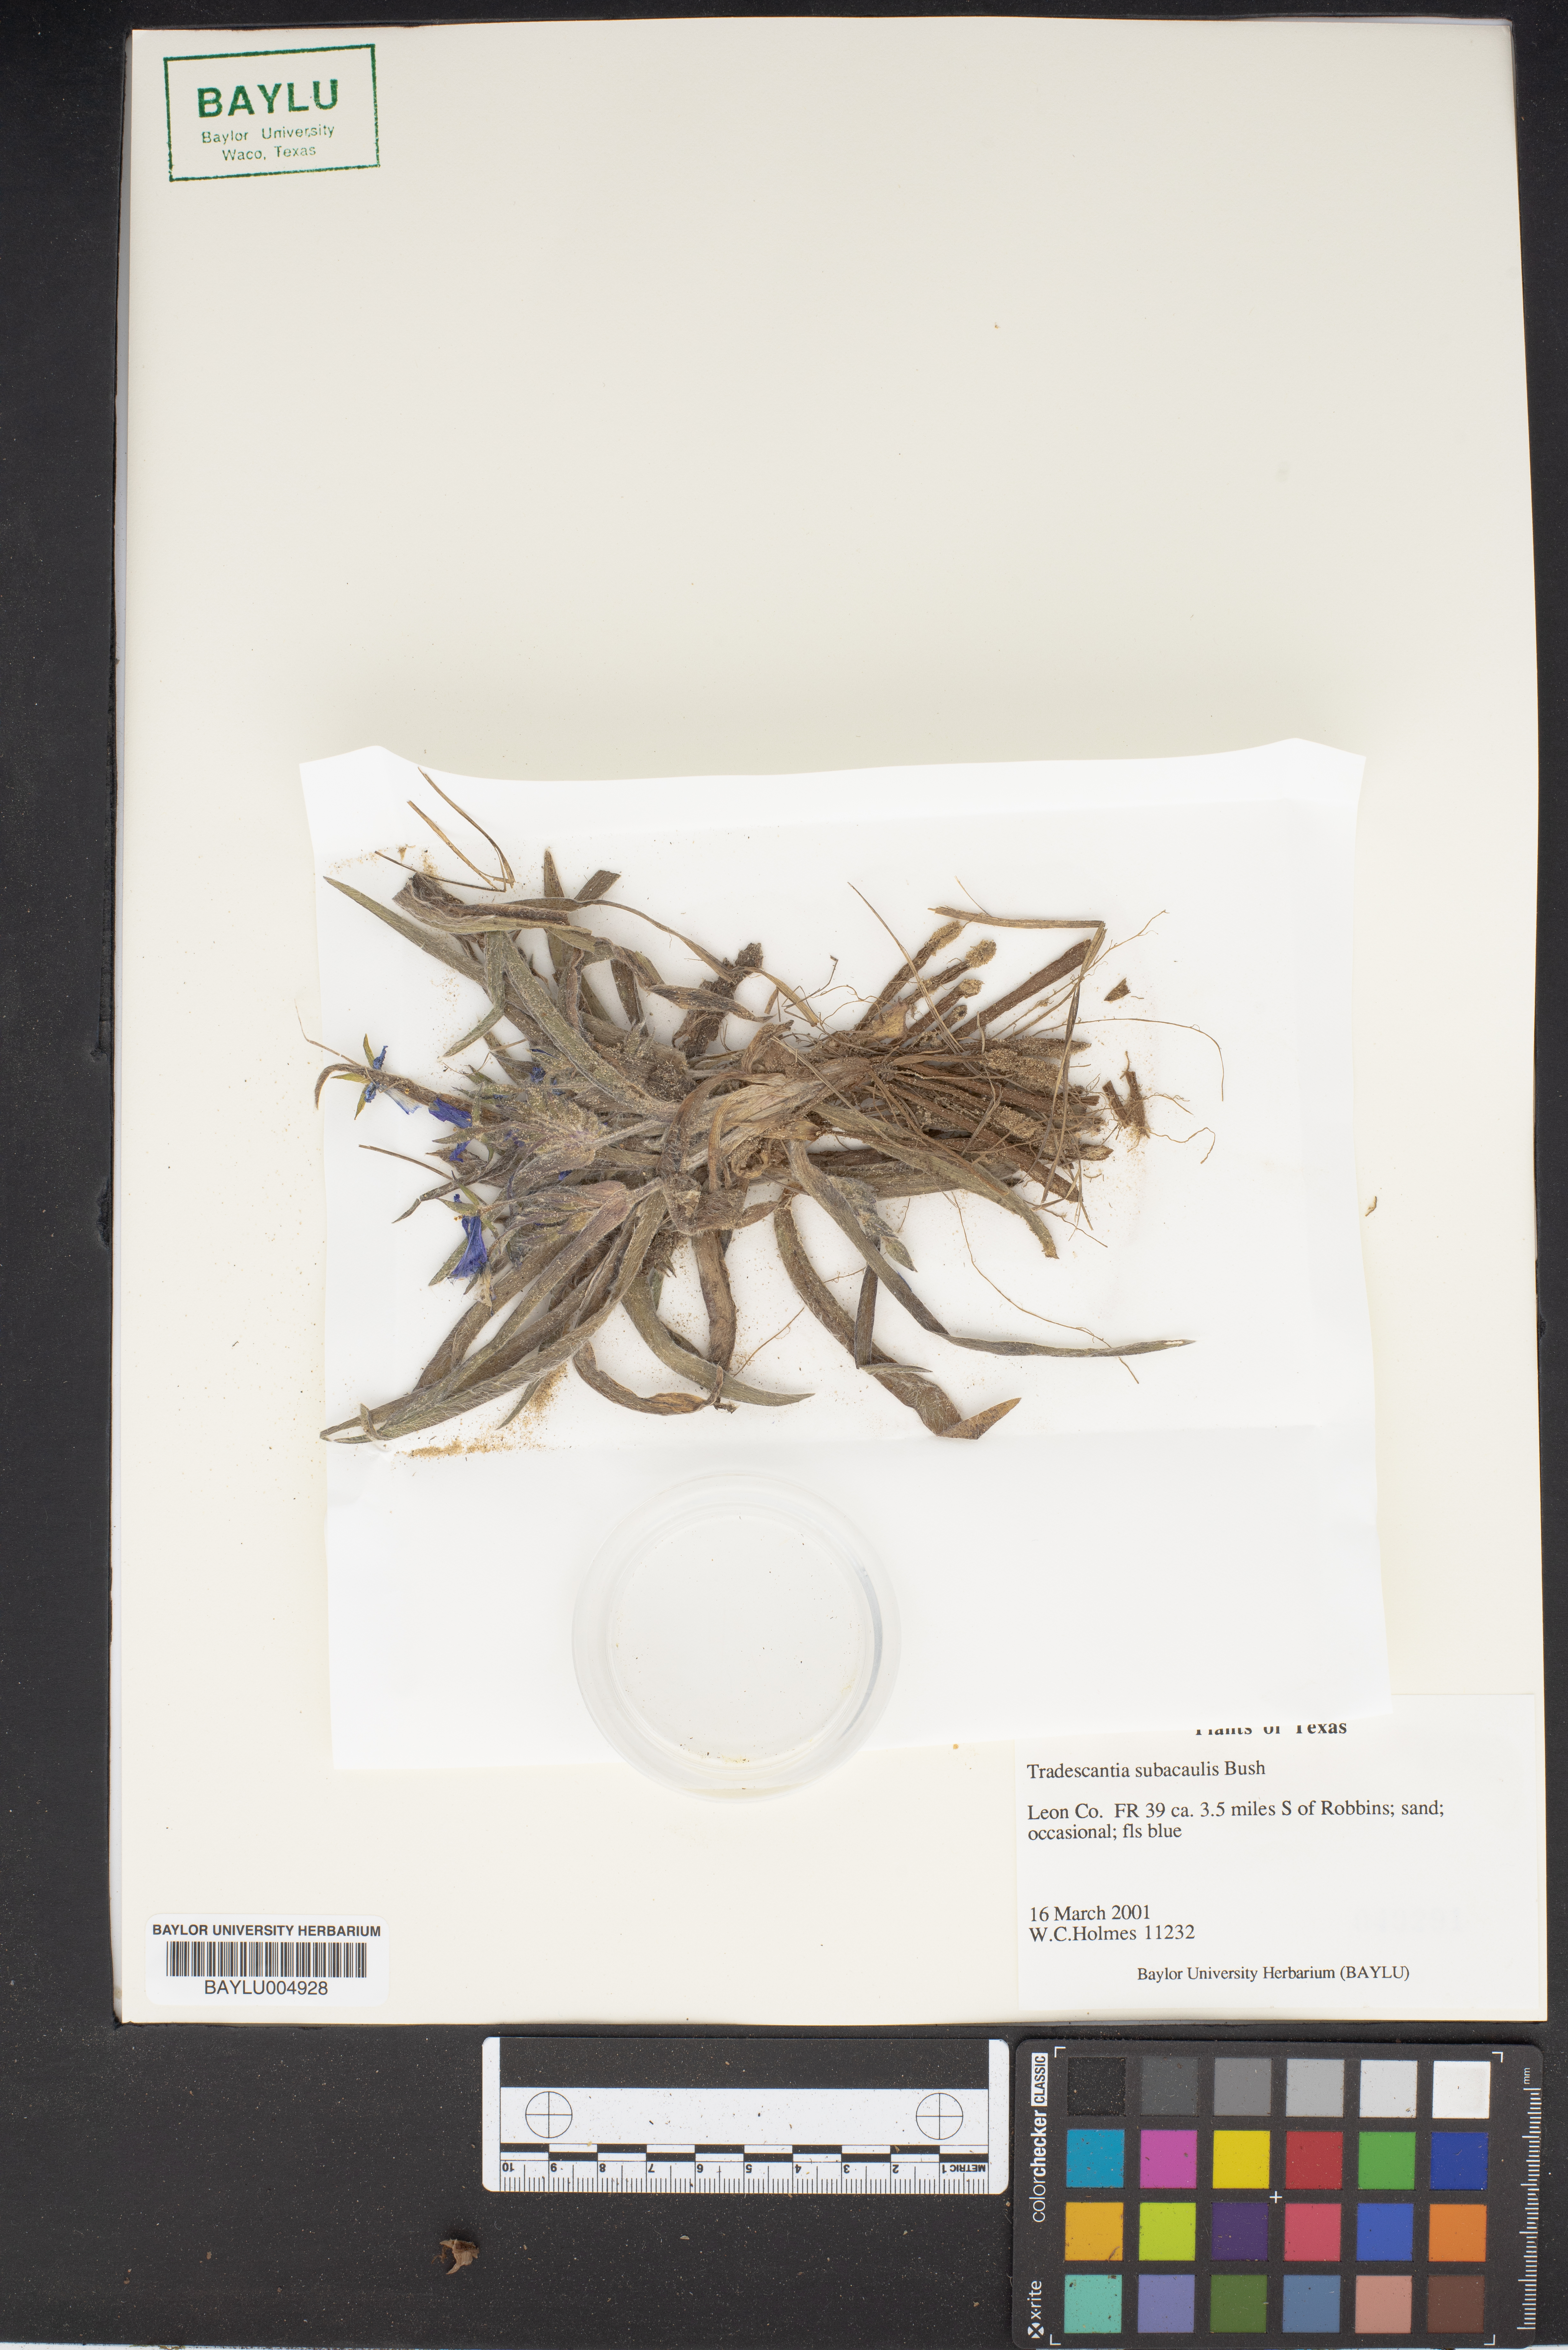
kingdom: Plantae
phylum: Tracheophyta
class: Liliopsida
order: Commelinales
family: Commelinaceae
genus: Tradescantia
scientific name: Tradescantia subacaulis
